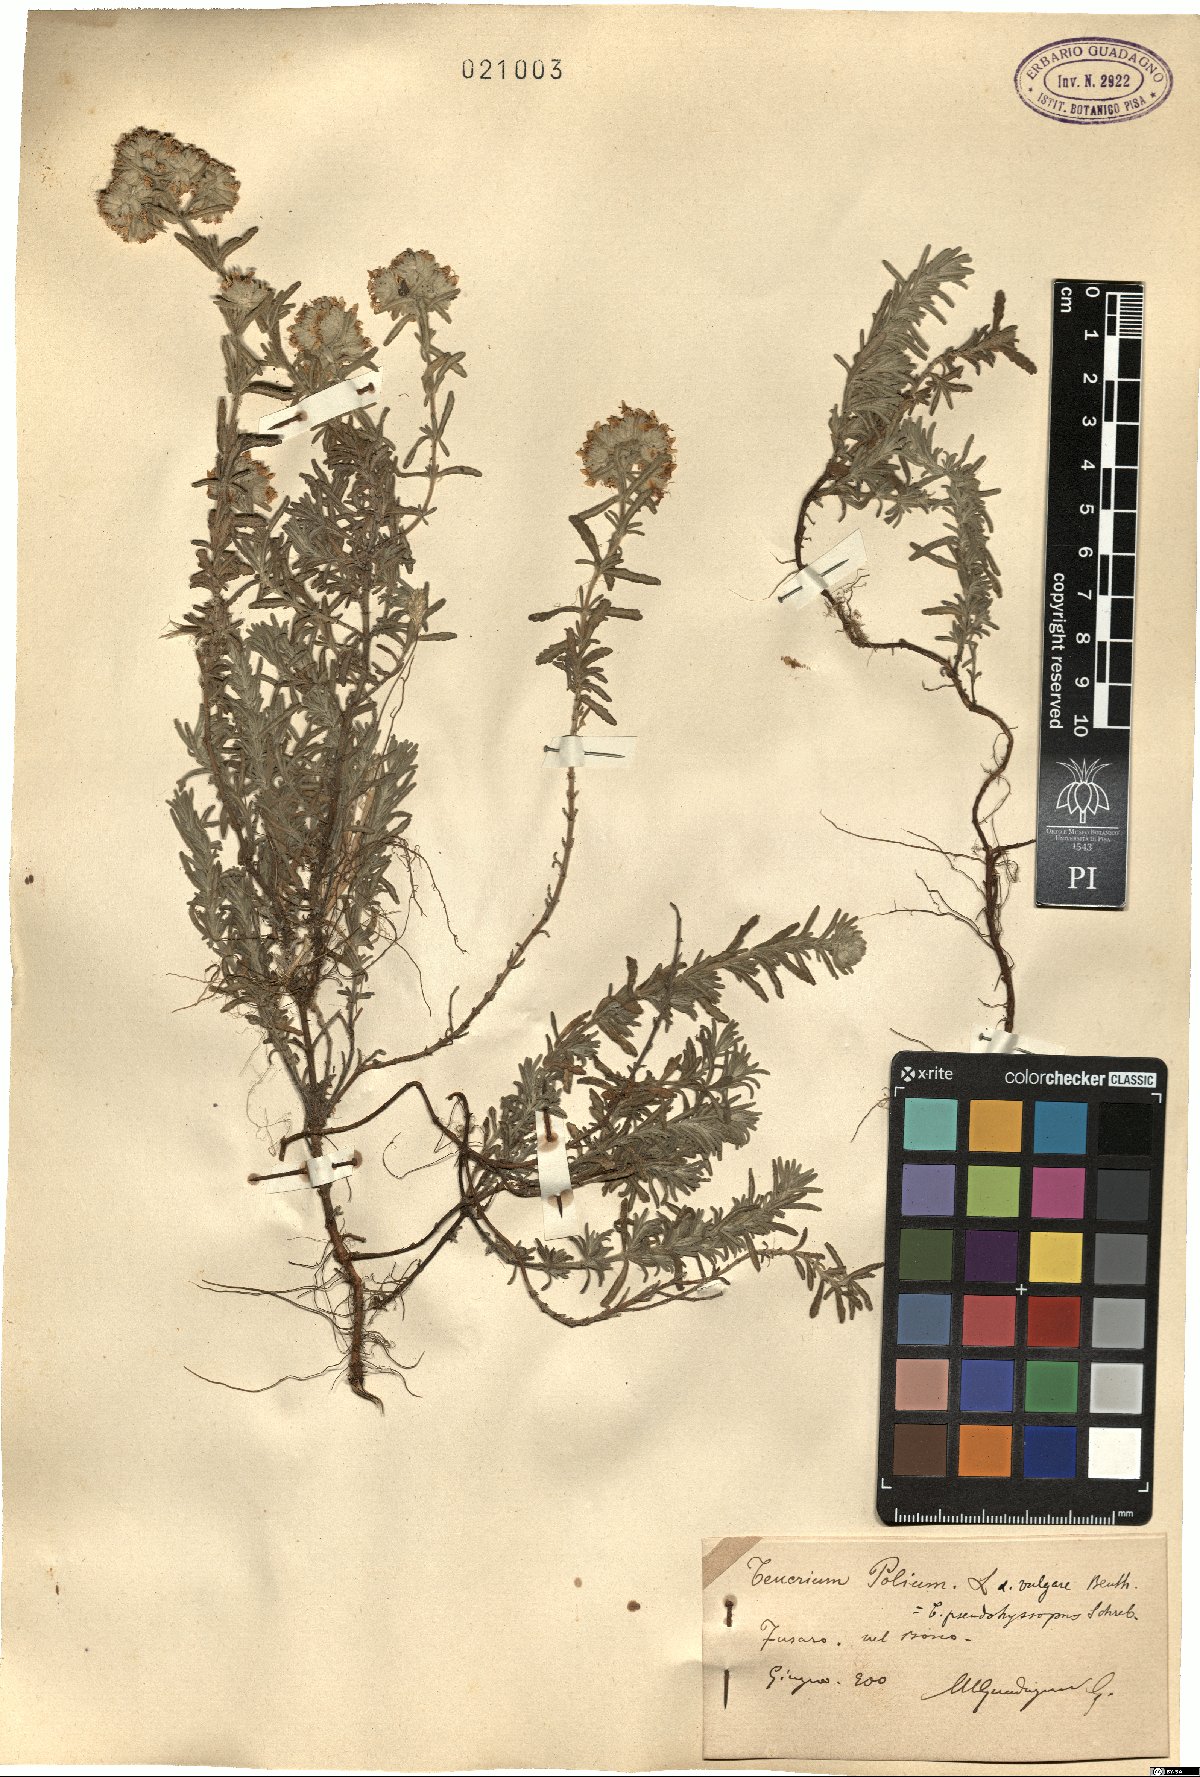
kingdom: Plantae
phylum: Tracheophyta
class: Magnoliopsida
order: Lamiales
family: Lamiaceae
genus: Teucrium
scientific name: Teucrium polium
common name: Poley
